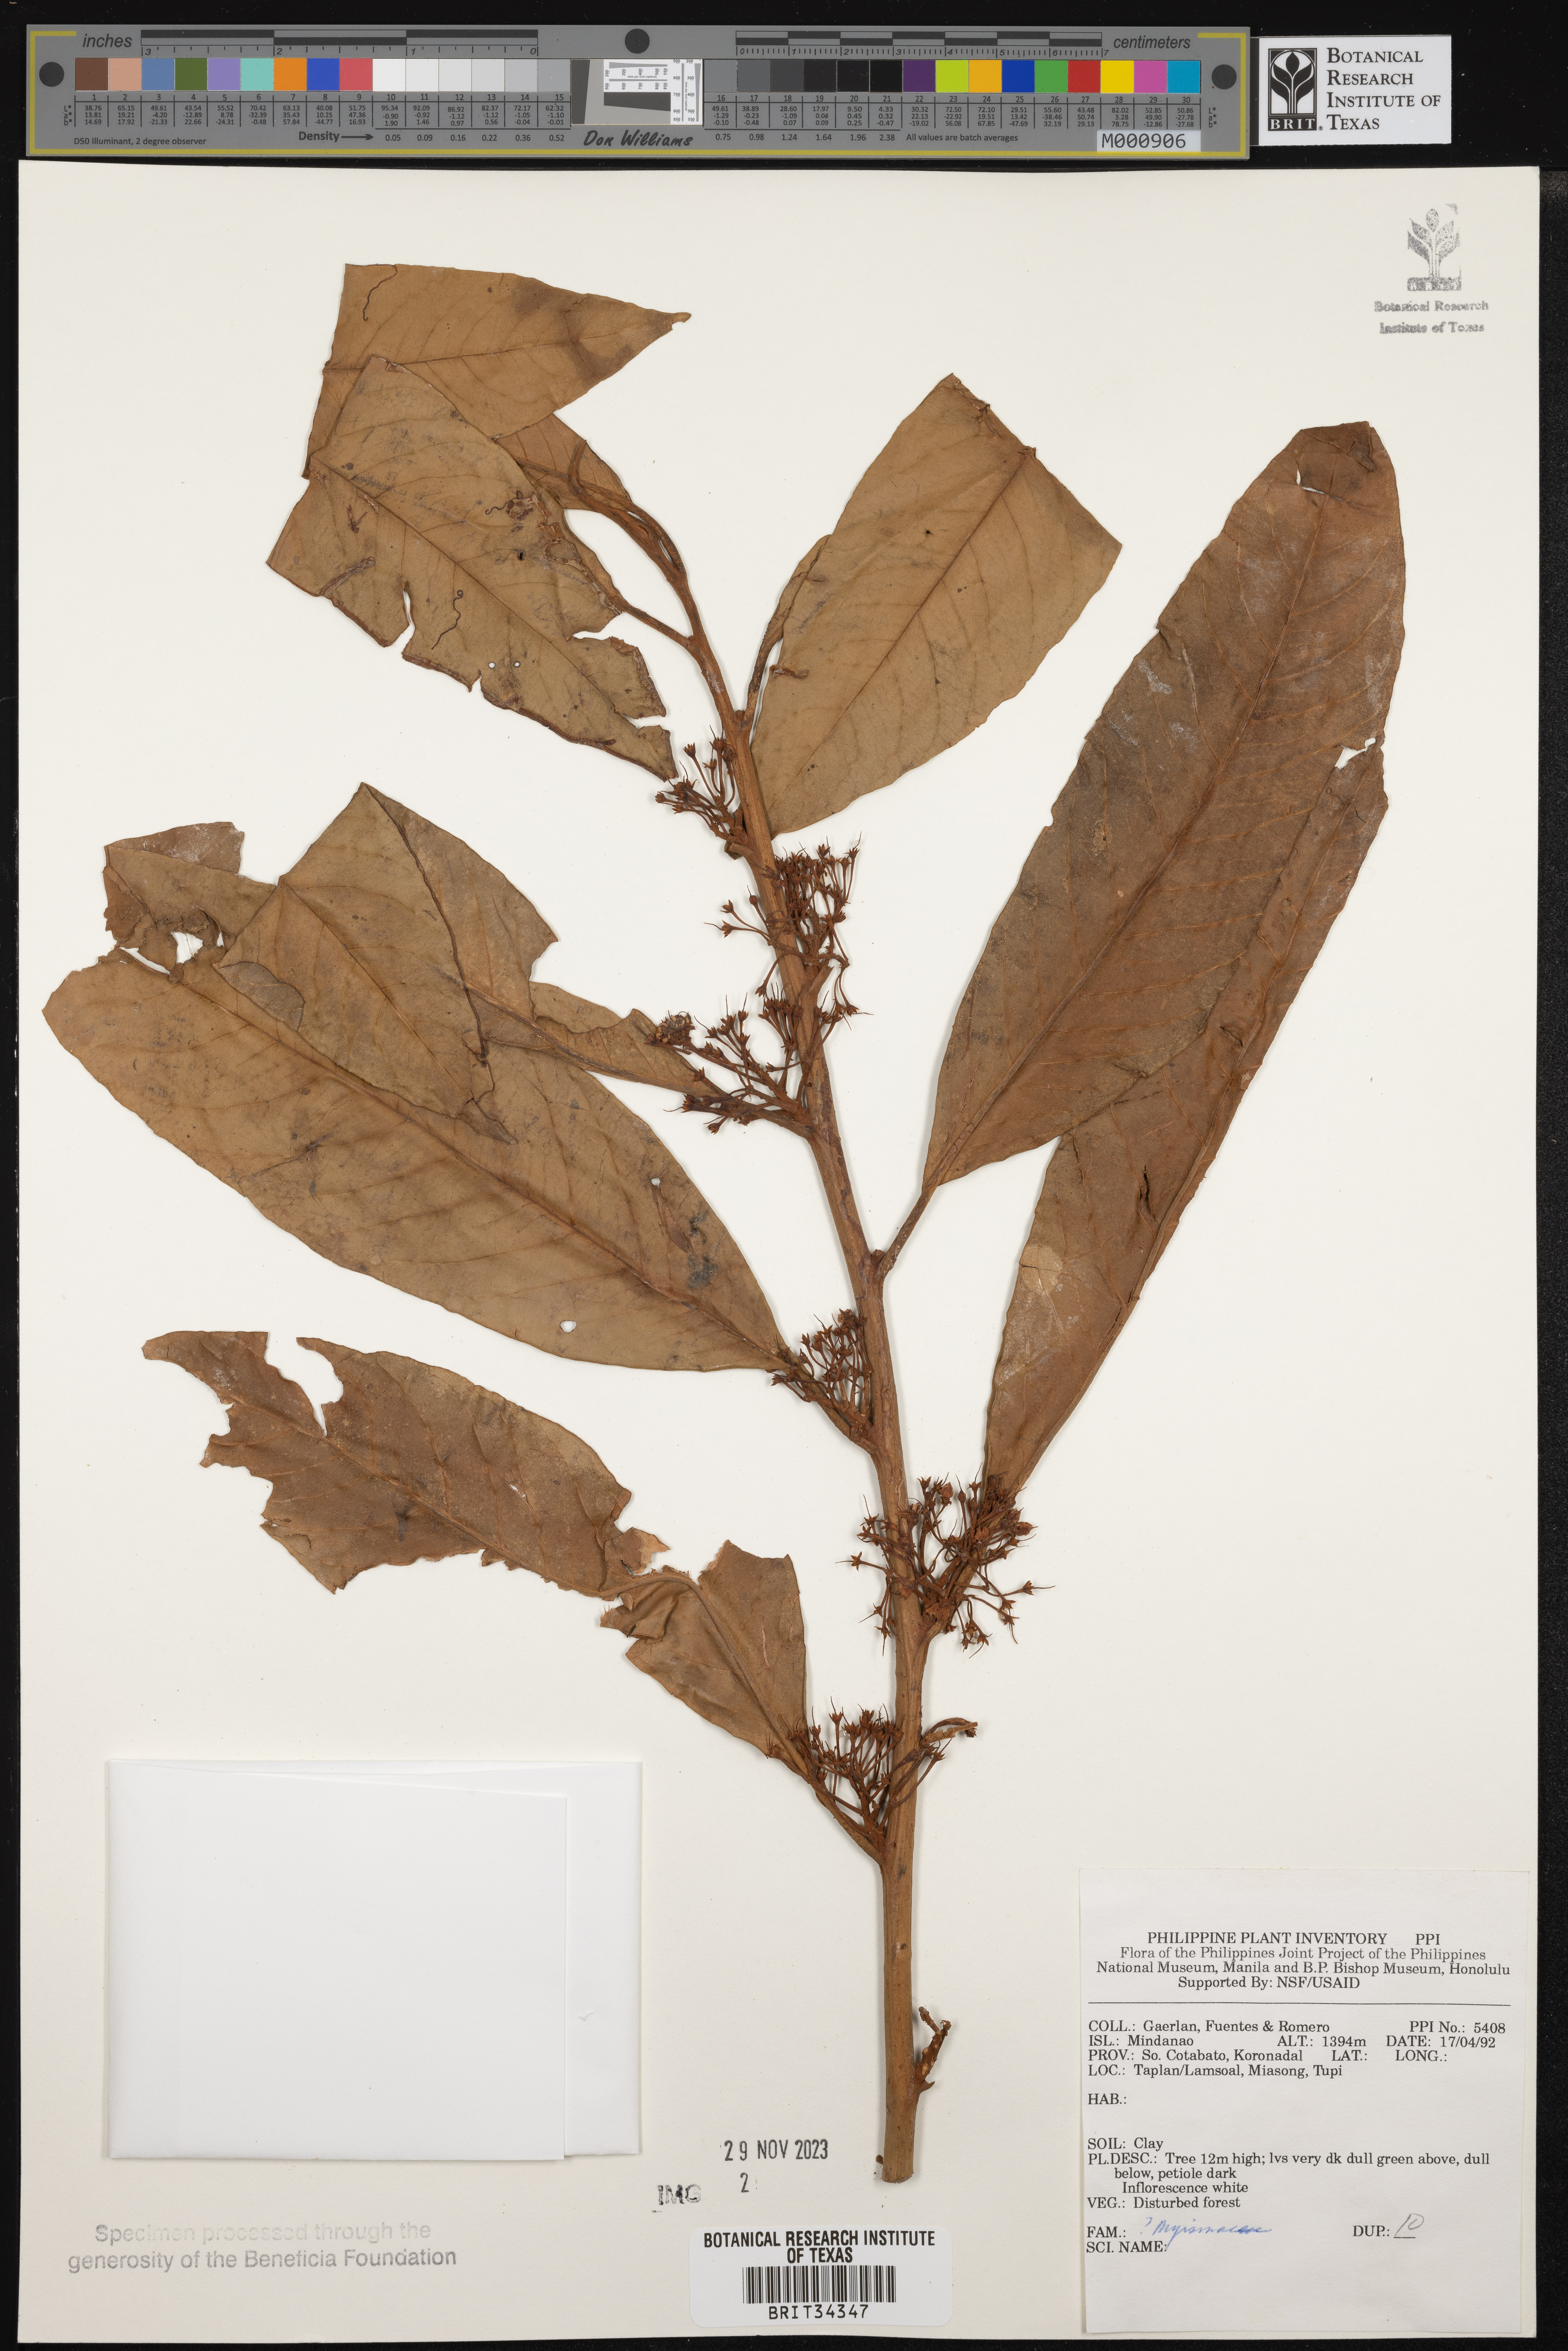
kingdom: Plantae
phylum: Tracheophyta
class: Magnoliopsida
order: Ericales
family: Primulaceae
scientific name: Primulaceae
